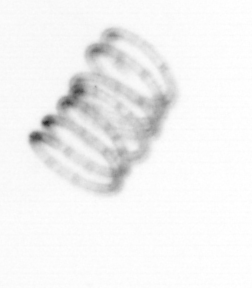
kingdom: Chromista
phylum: Ochrophyta
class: Bacillariophyceae
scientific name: Bacillariophyceae
